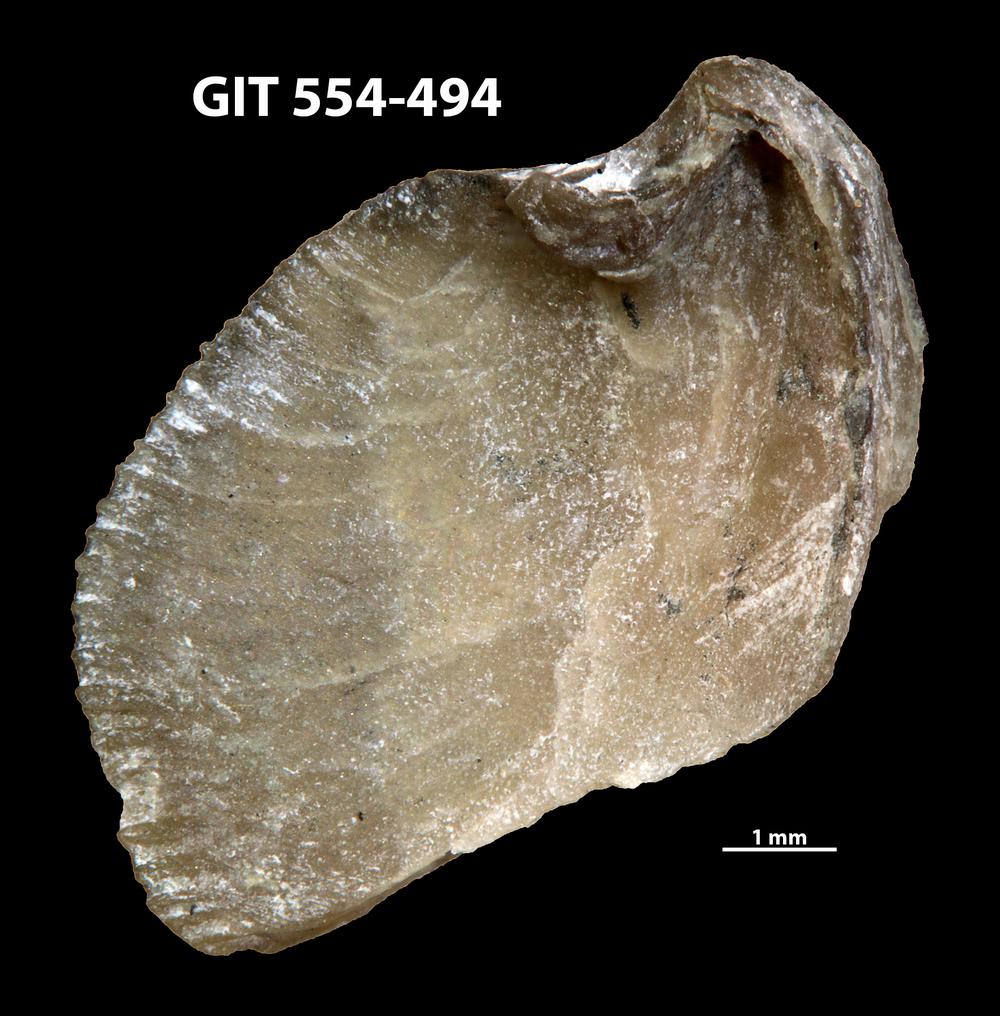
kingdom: Animalia
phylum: Brachiopoda
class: Rhynchonellata
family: Dalmanellidae
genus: Isorthis
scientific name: Isorthis parvulus
